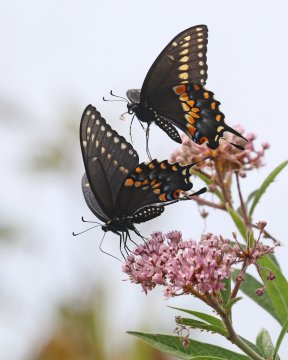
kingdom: Animalia
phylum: Arthropoda
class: Insecta
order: Lepidoptera
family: Papilionidae
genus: Papilio
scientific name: Papilio polyxenes
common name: Black Swallowtail
